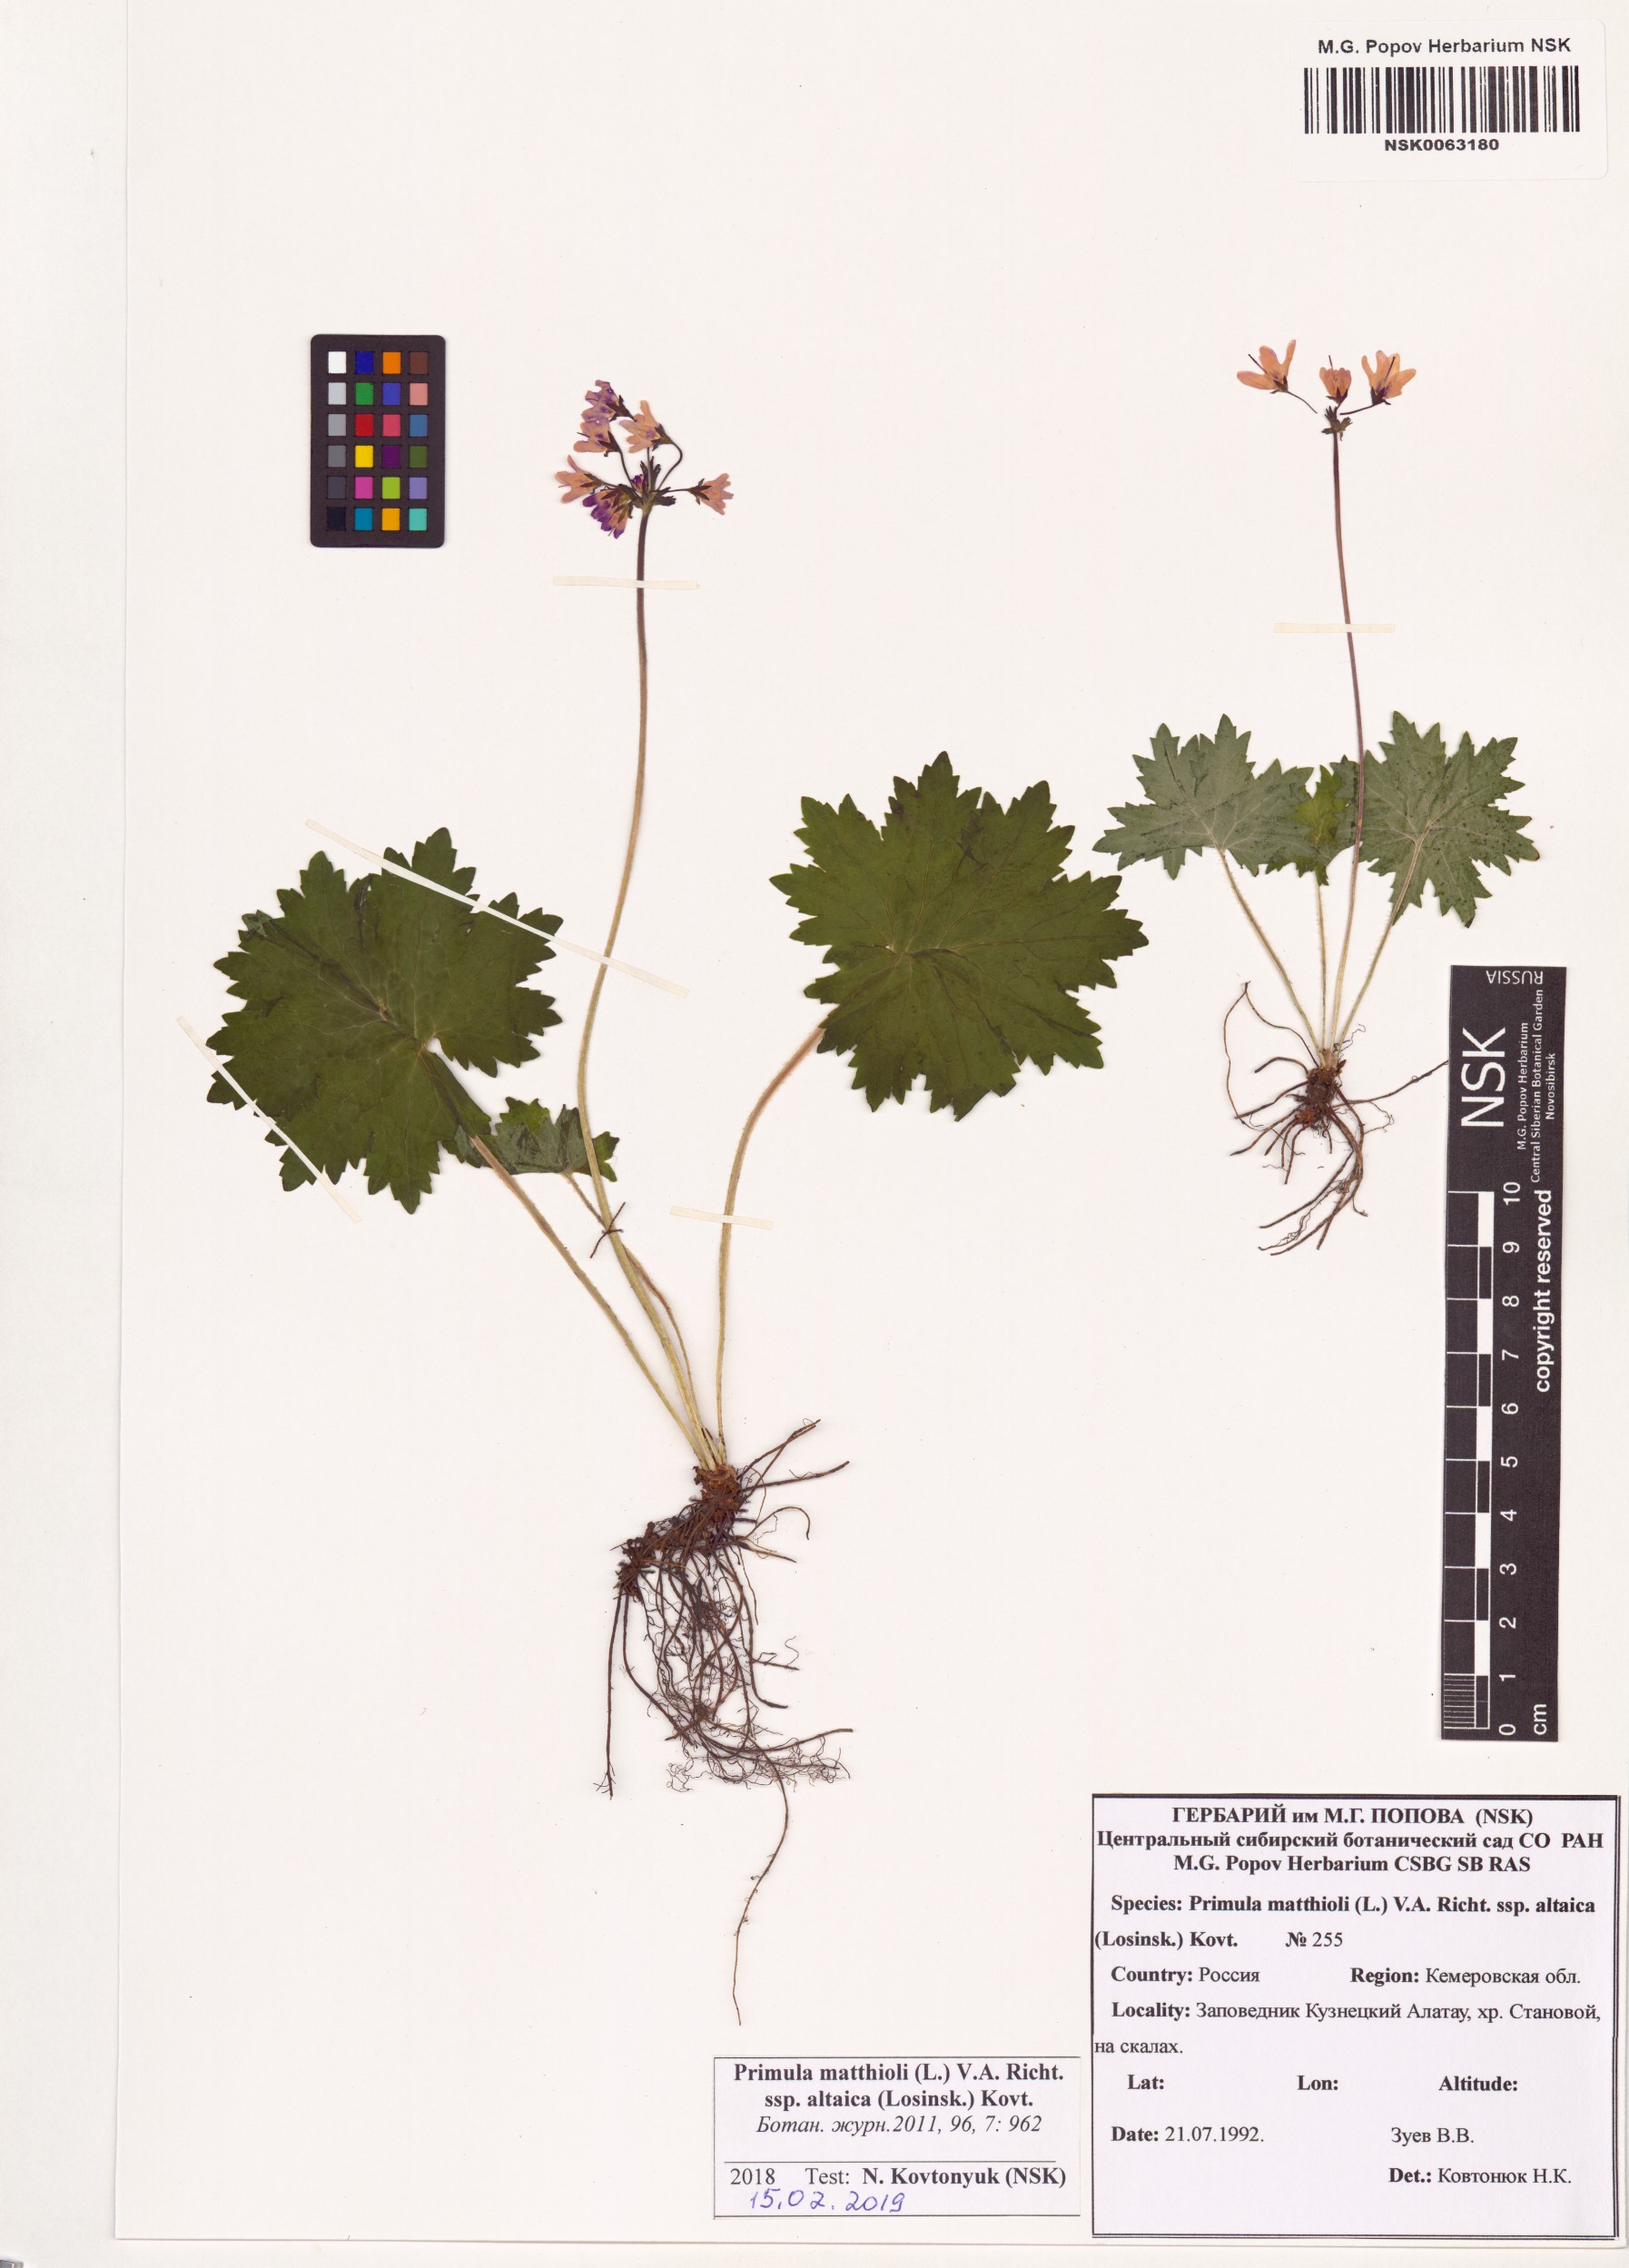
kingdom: Plantae
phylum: Tracheophyta
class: Magnoliopsida
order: Ericales
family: Primulaceae
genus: Primula
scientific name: Primula matthioli
